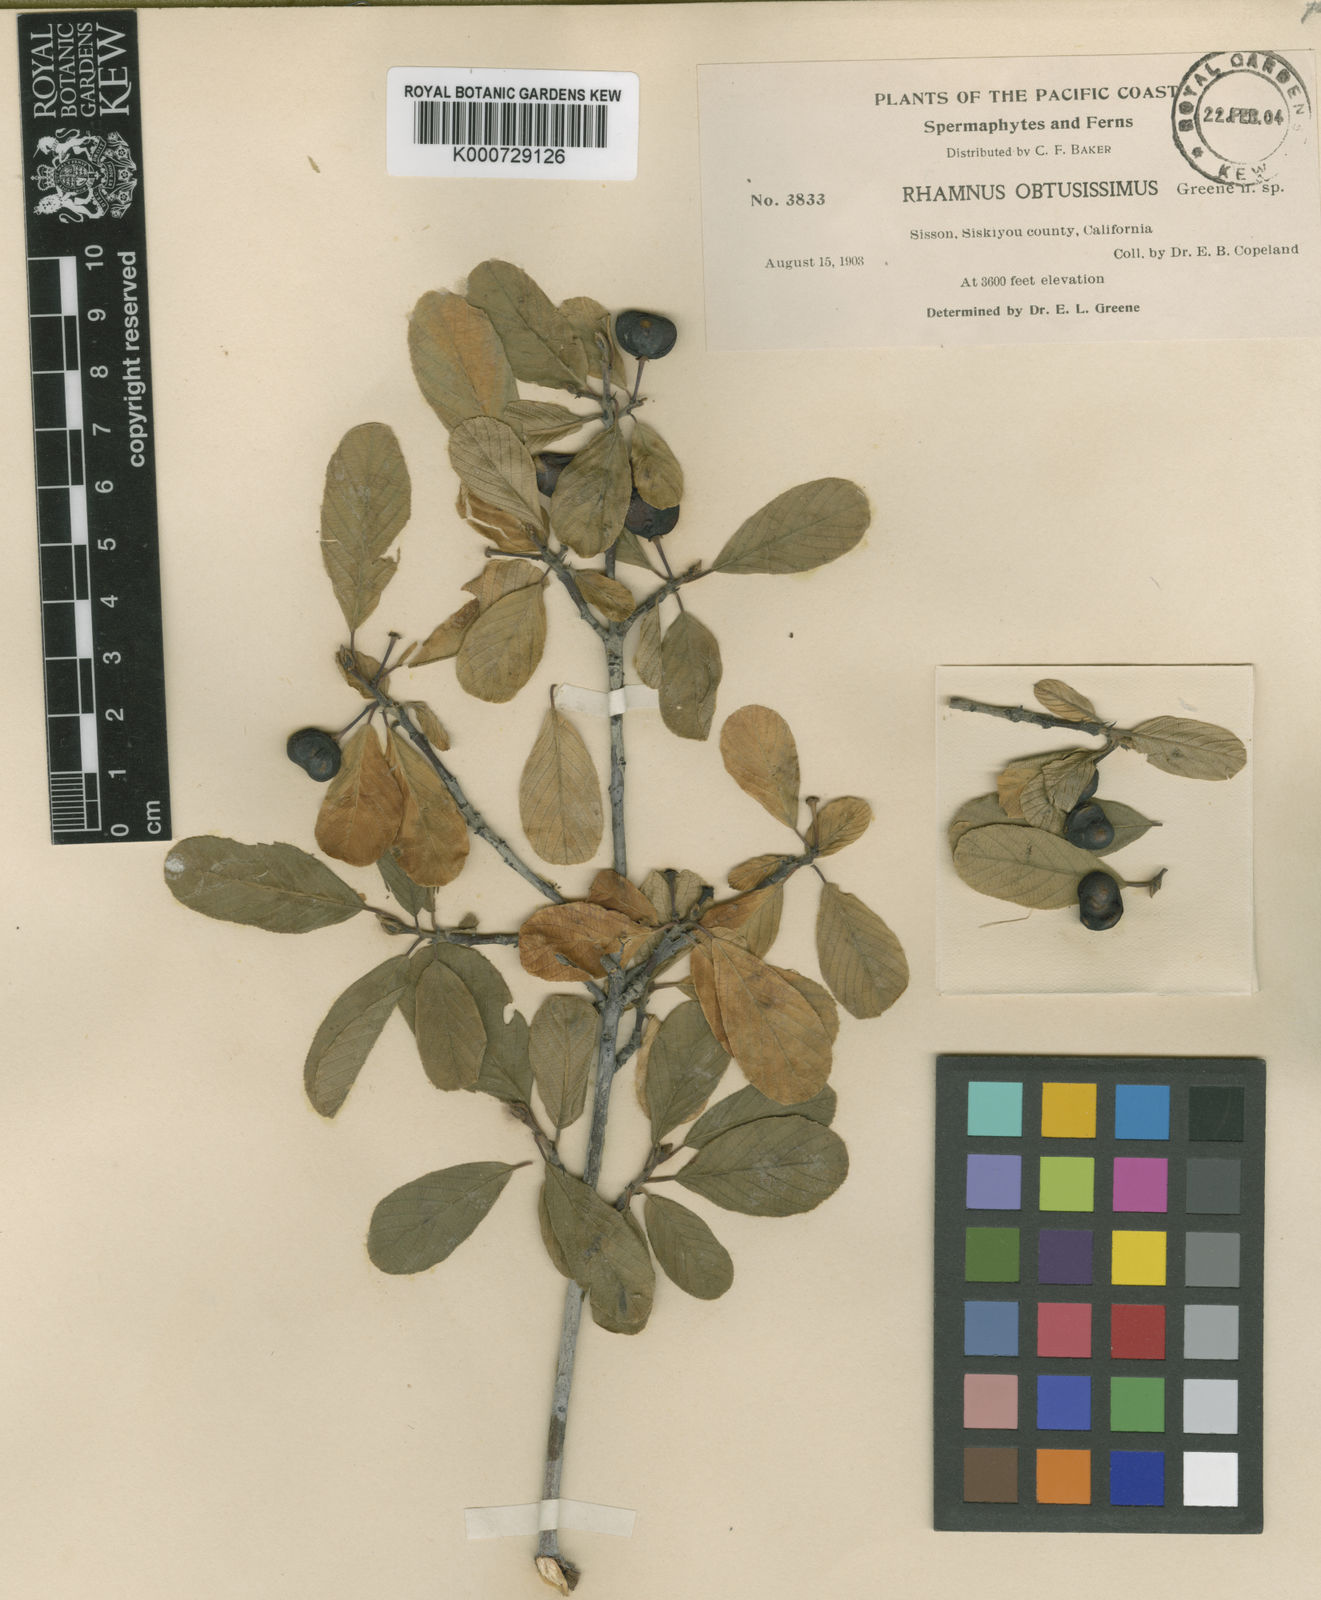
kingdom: Plantae
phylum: Tracheophyta
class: Magnoliopsida
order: Rosales
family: Rhamnaceae
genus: Frangula
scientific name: Frangula rubra
